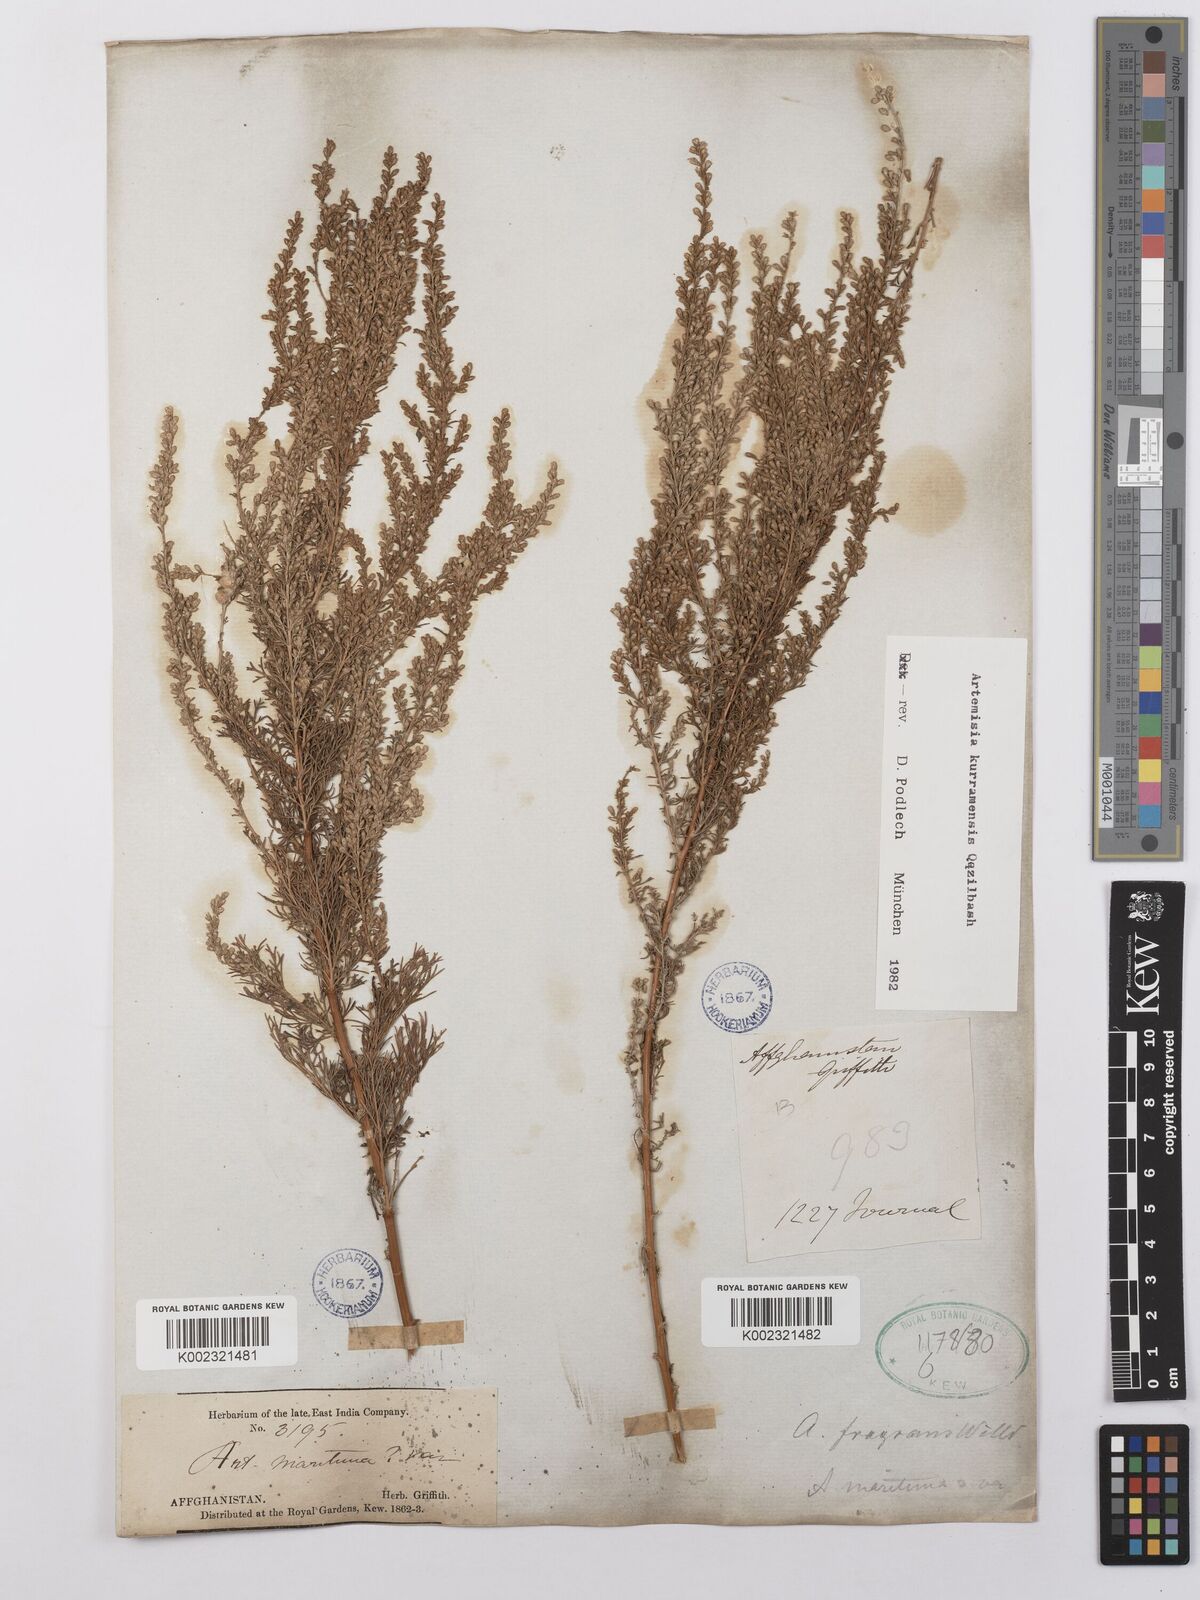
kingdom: Plantae
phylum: Tracheophyta
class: Magnoliopsida
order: Asterales
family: Asteraceae
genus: Artemisia
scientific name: Artemisia kurramensis
